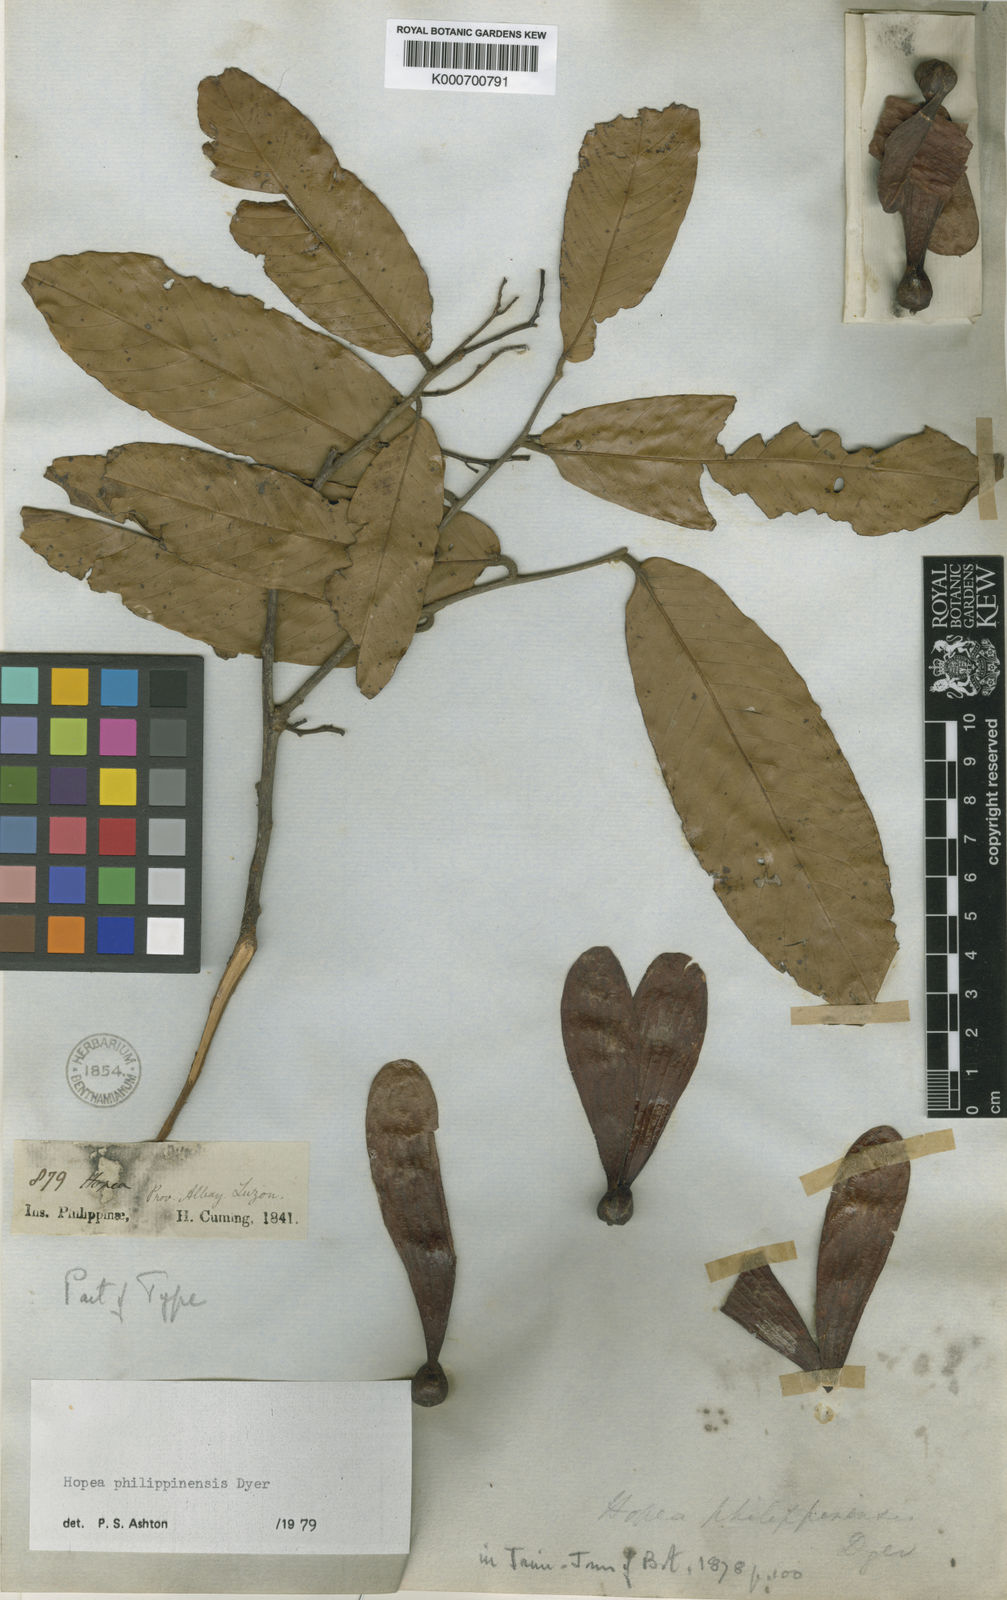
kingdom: Plantae
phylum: Tracheophyta
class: Magnoliopsida
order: Malvales
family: Dipterocarpaceae
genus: Hopea
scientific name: Hopea philippinensis
